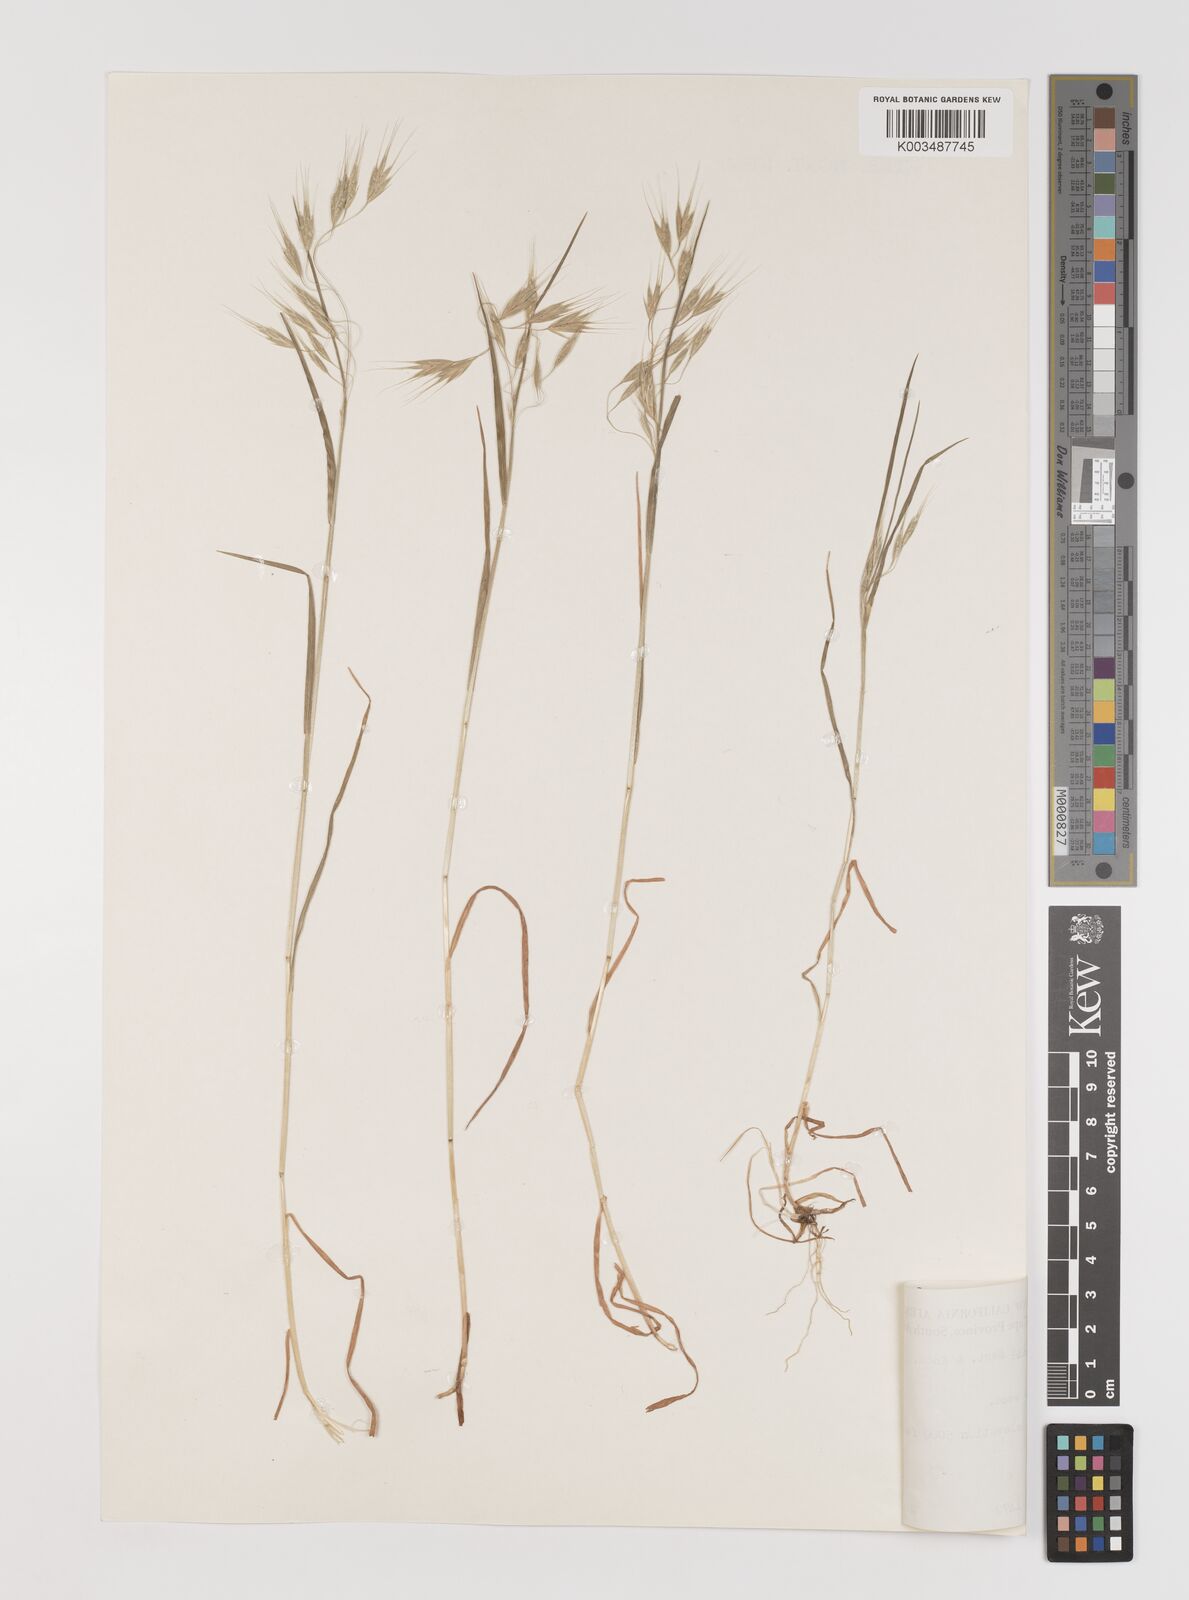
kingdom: Plantae
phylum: Tracheophyta
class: Liliopsida
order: Poales
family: Poaceae
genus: Bromus
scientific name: Bromus pectinatus
